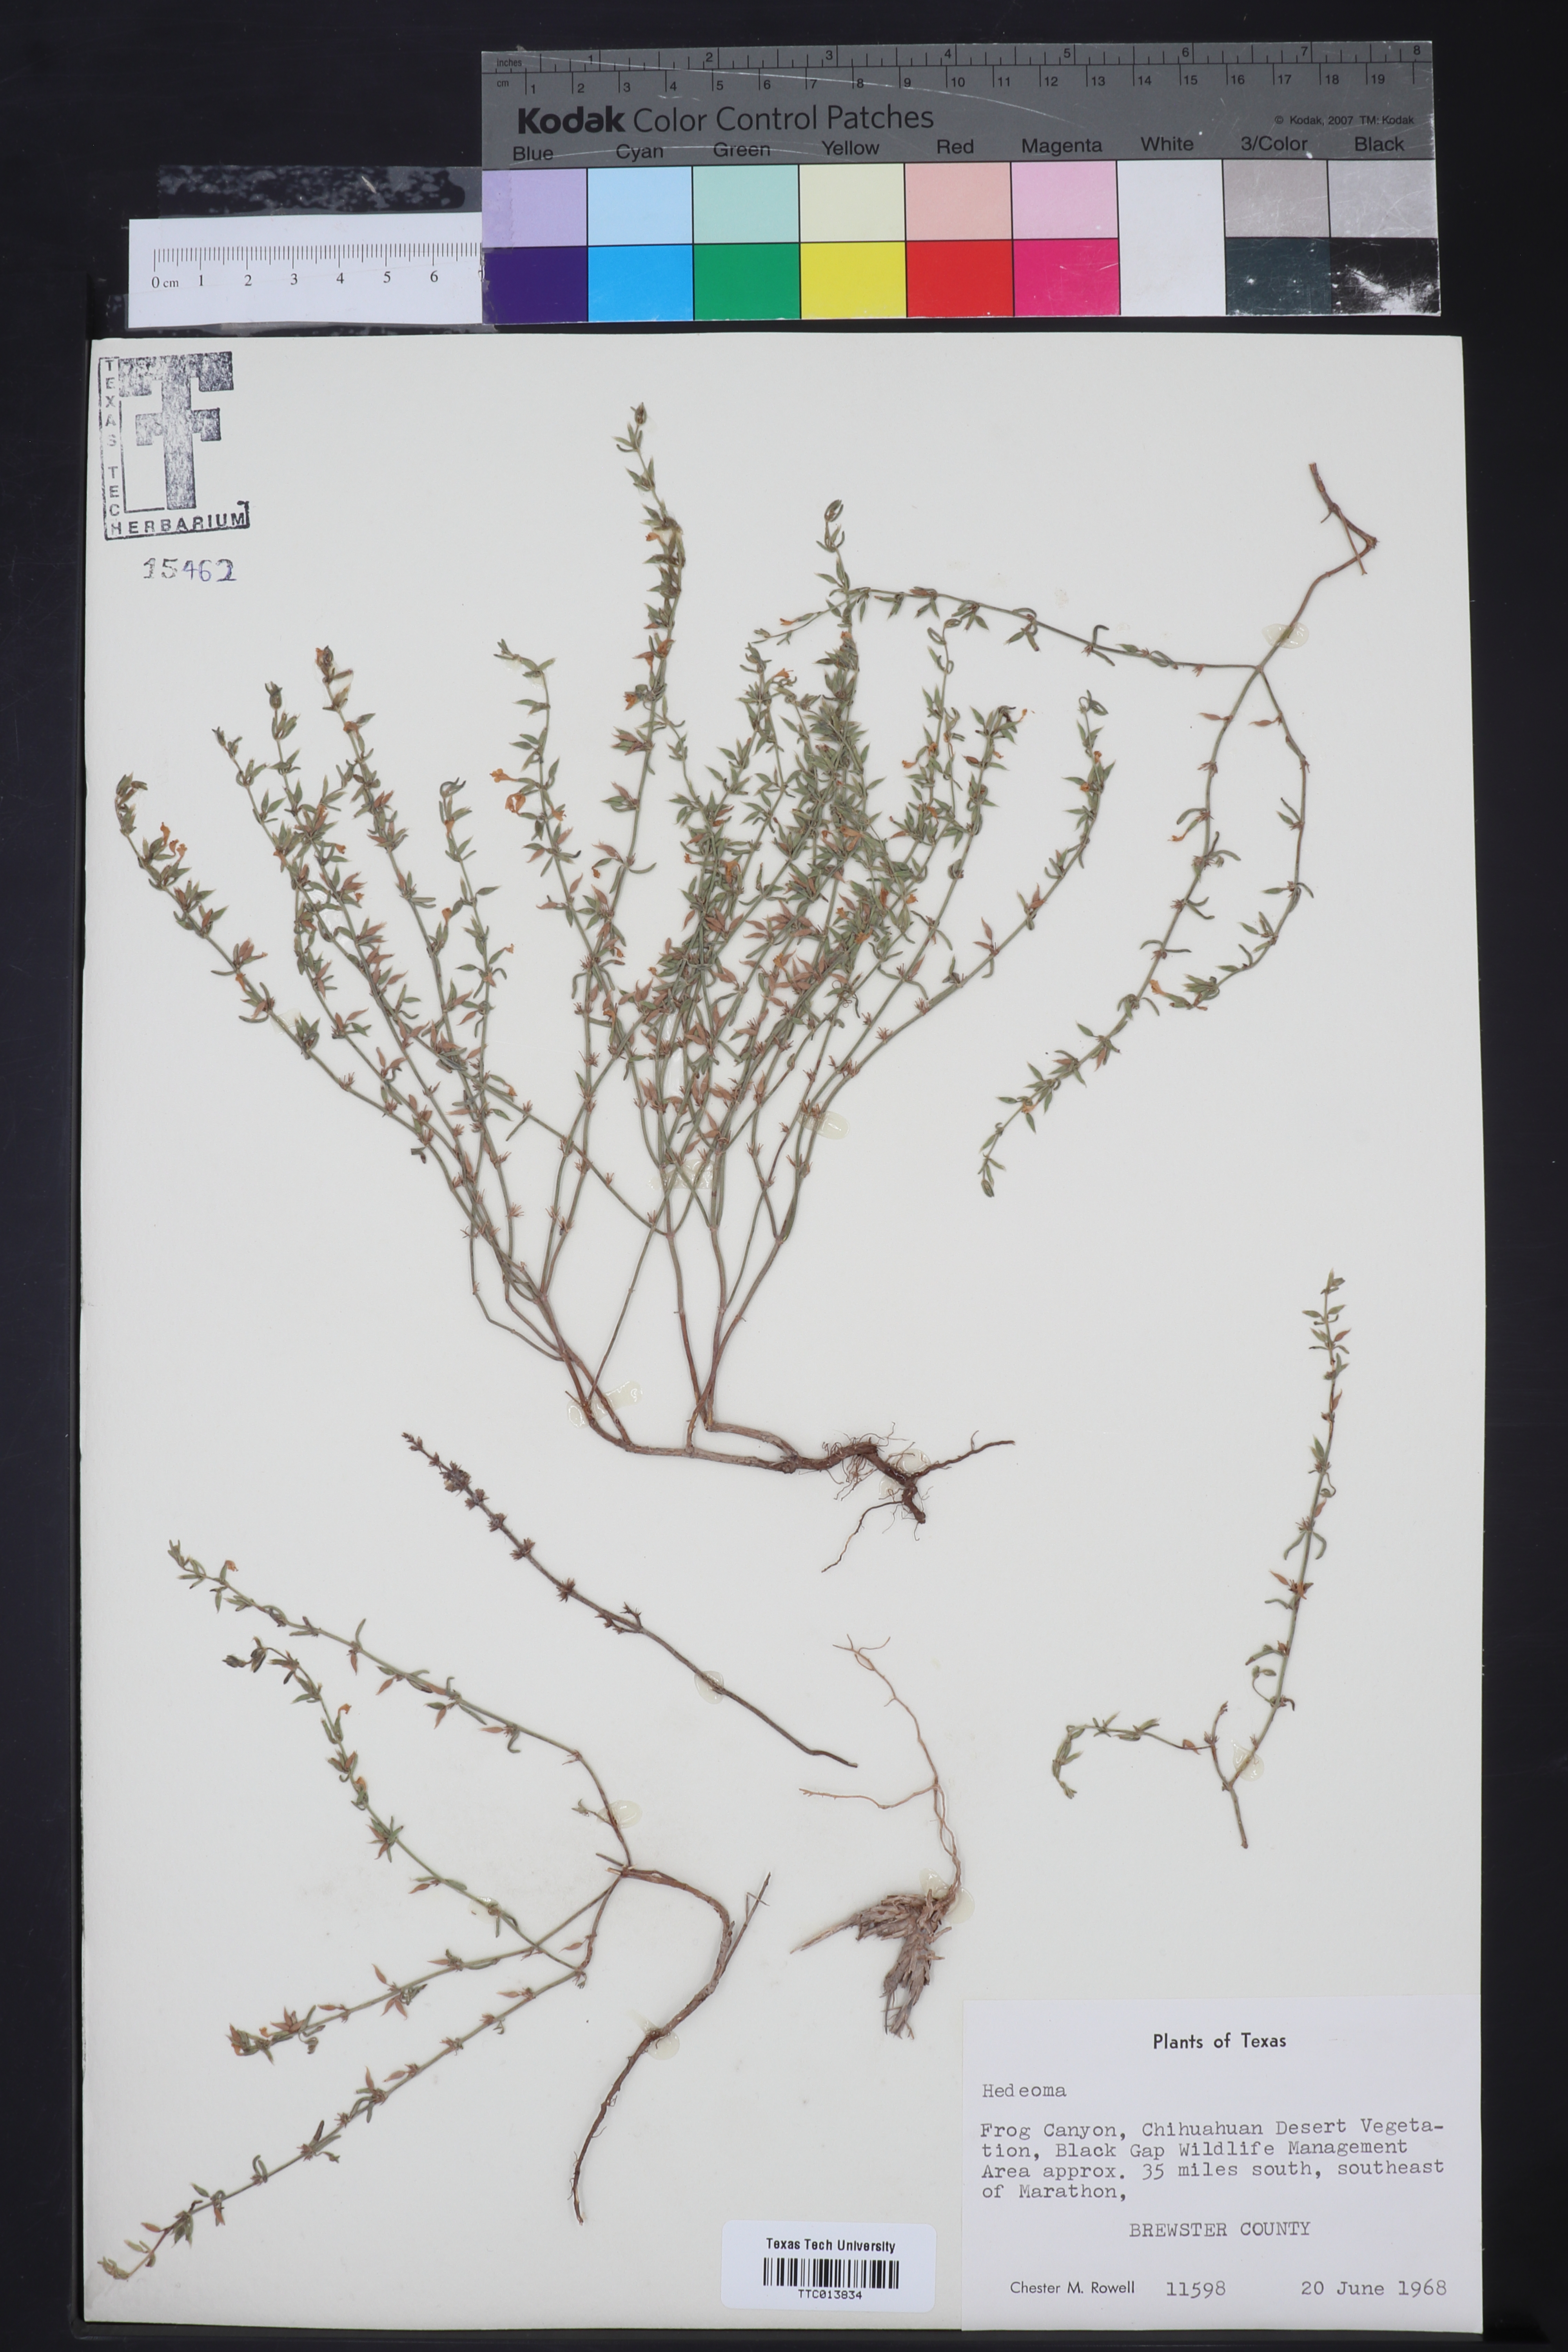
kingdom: Plantae
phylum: Tracheophyta
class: Magnoliopsida
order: Lamiales
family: Lamiaceae
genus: Hedeoma
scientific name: Hedeoma
